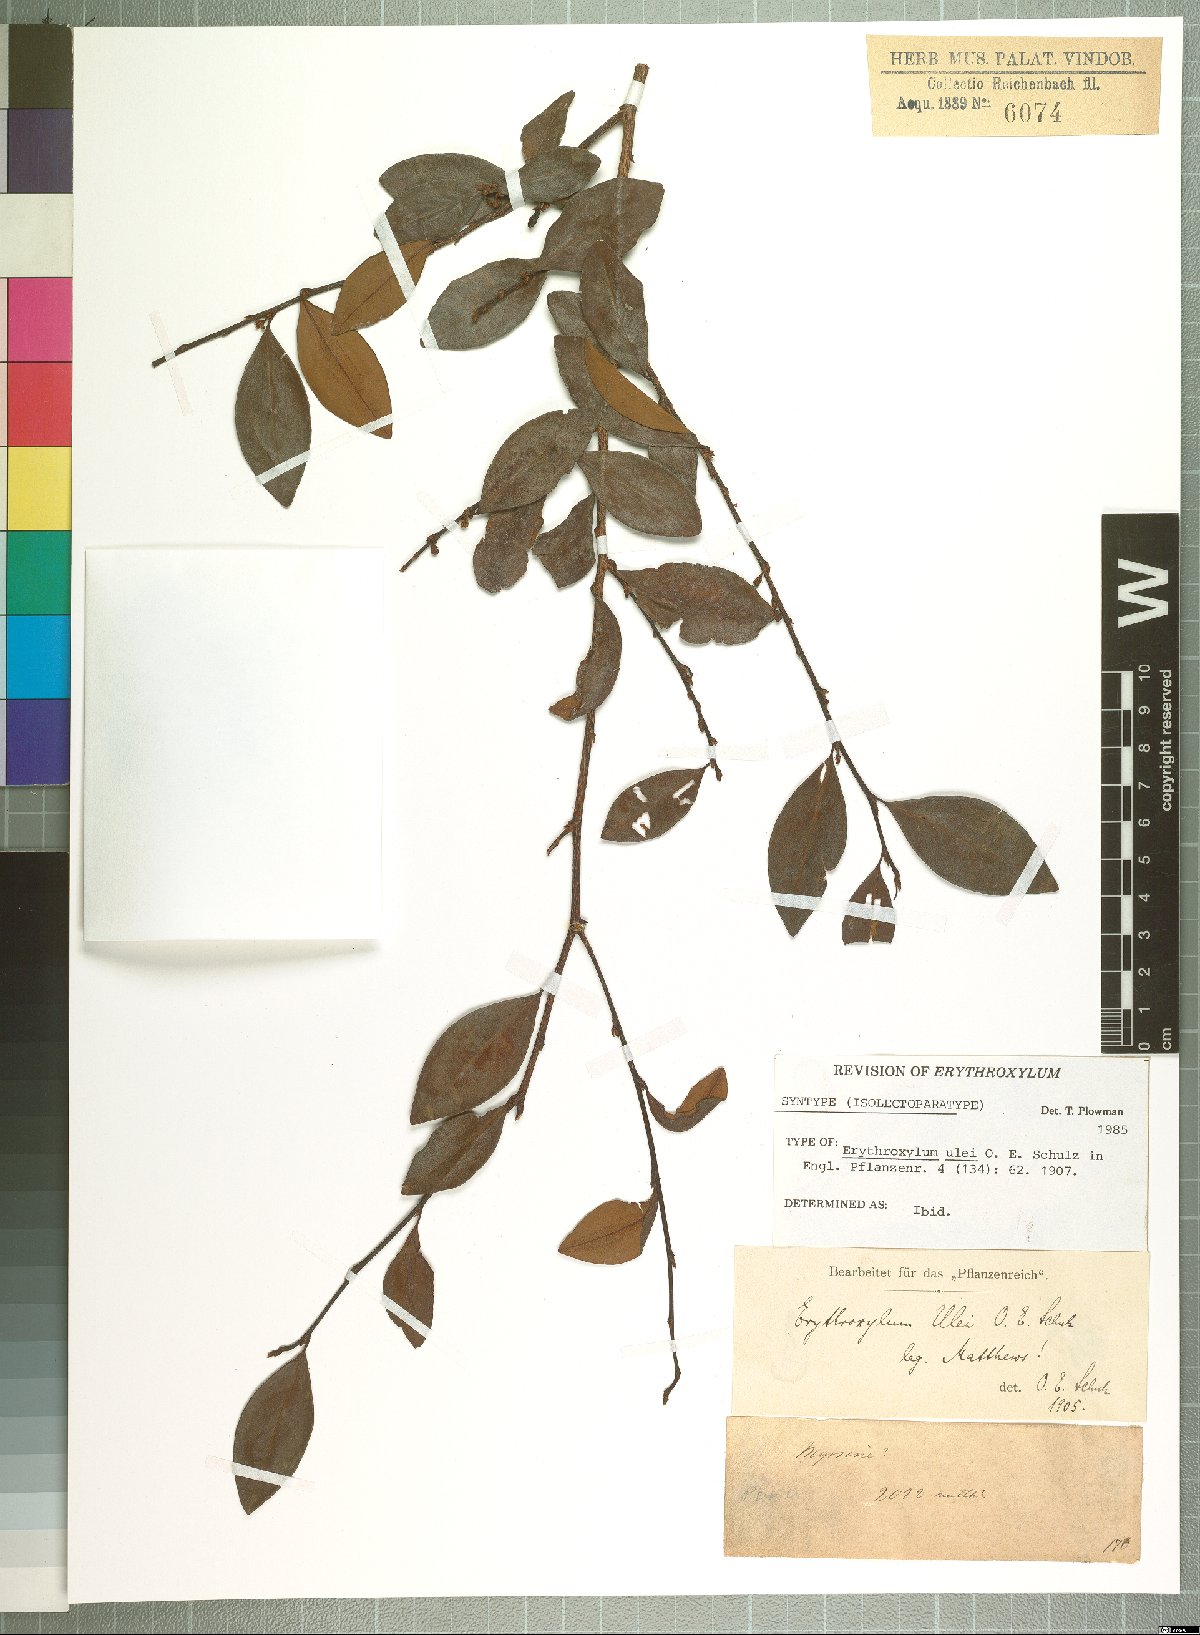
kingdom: Plantae
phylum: Tracheophyta
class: Magnoliopsida
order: Malpighiales
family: Erythroxylaceae
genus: Erythroxylum
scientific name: Erythroxylum ulei
